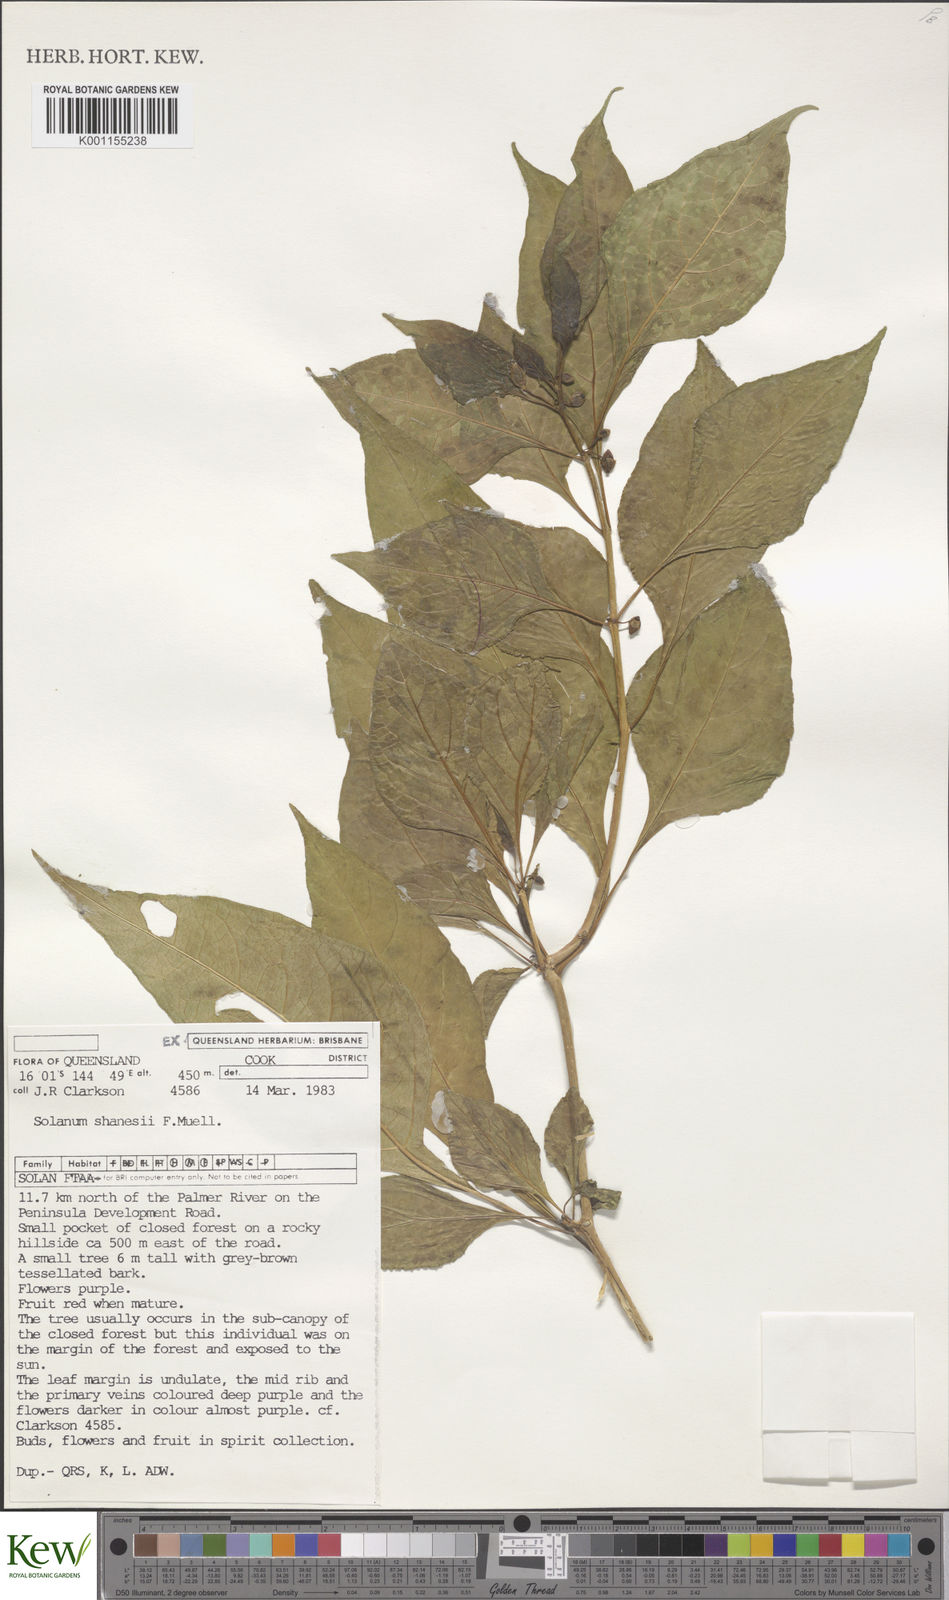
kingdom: Plantae
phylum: Tracheophyta
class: Magnoliopsida
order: Solanales
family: Solanaceae
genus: Lycianthes
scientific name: Lycianthes shanesii
